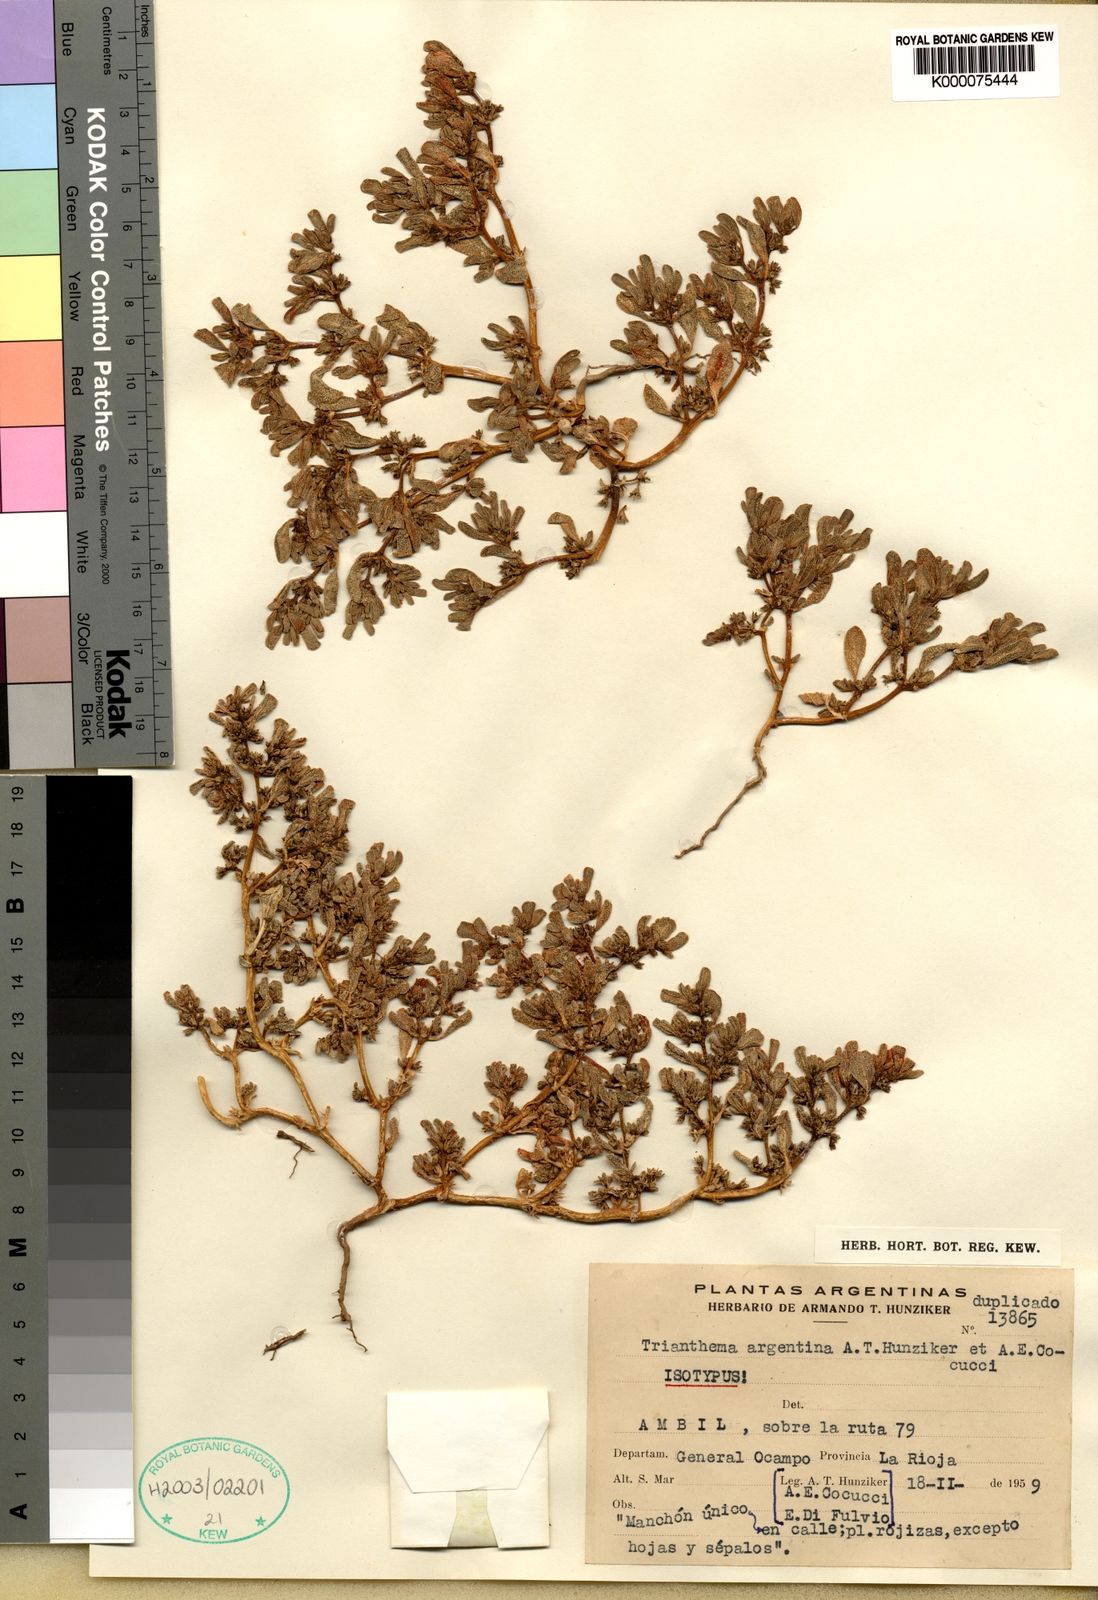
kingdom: Plantae
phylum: Tracheophyta
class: Magnoliopsida
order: Caryophyllales
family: Aizoaceae
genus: Trianthema
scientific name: Trianthema argentinum
